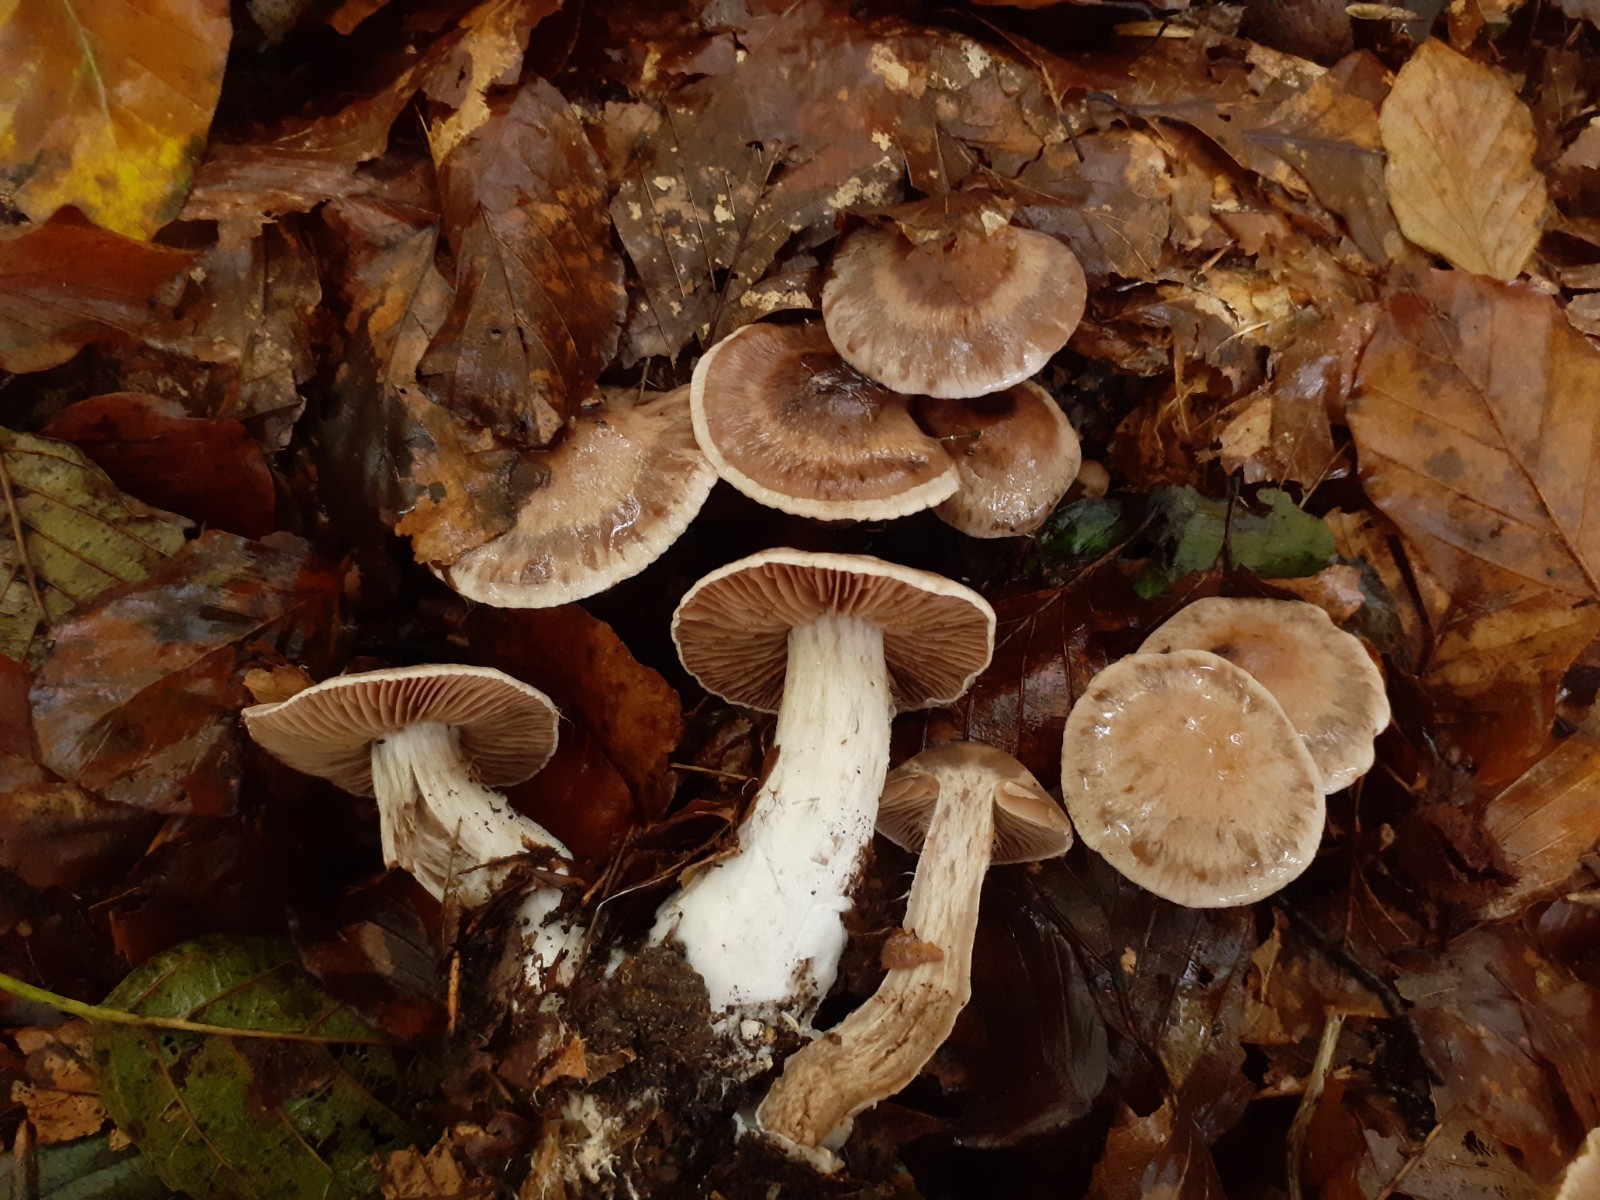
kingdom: Fungi
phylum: Basidiomycota
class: Agaricomycetes
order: Agaricales
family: Cortinariaceae
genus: Cortinarius
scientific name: Cortinarius stipitemirus
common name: vildsvine-slørhat
